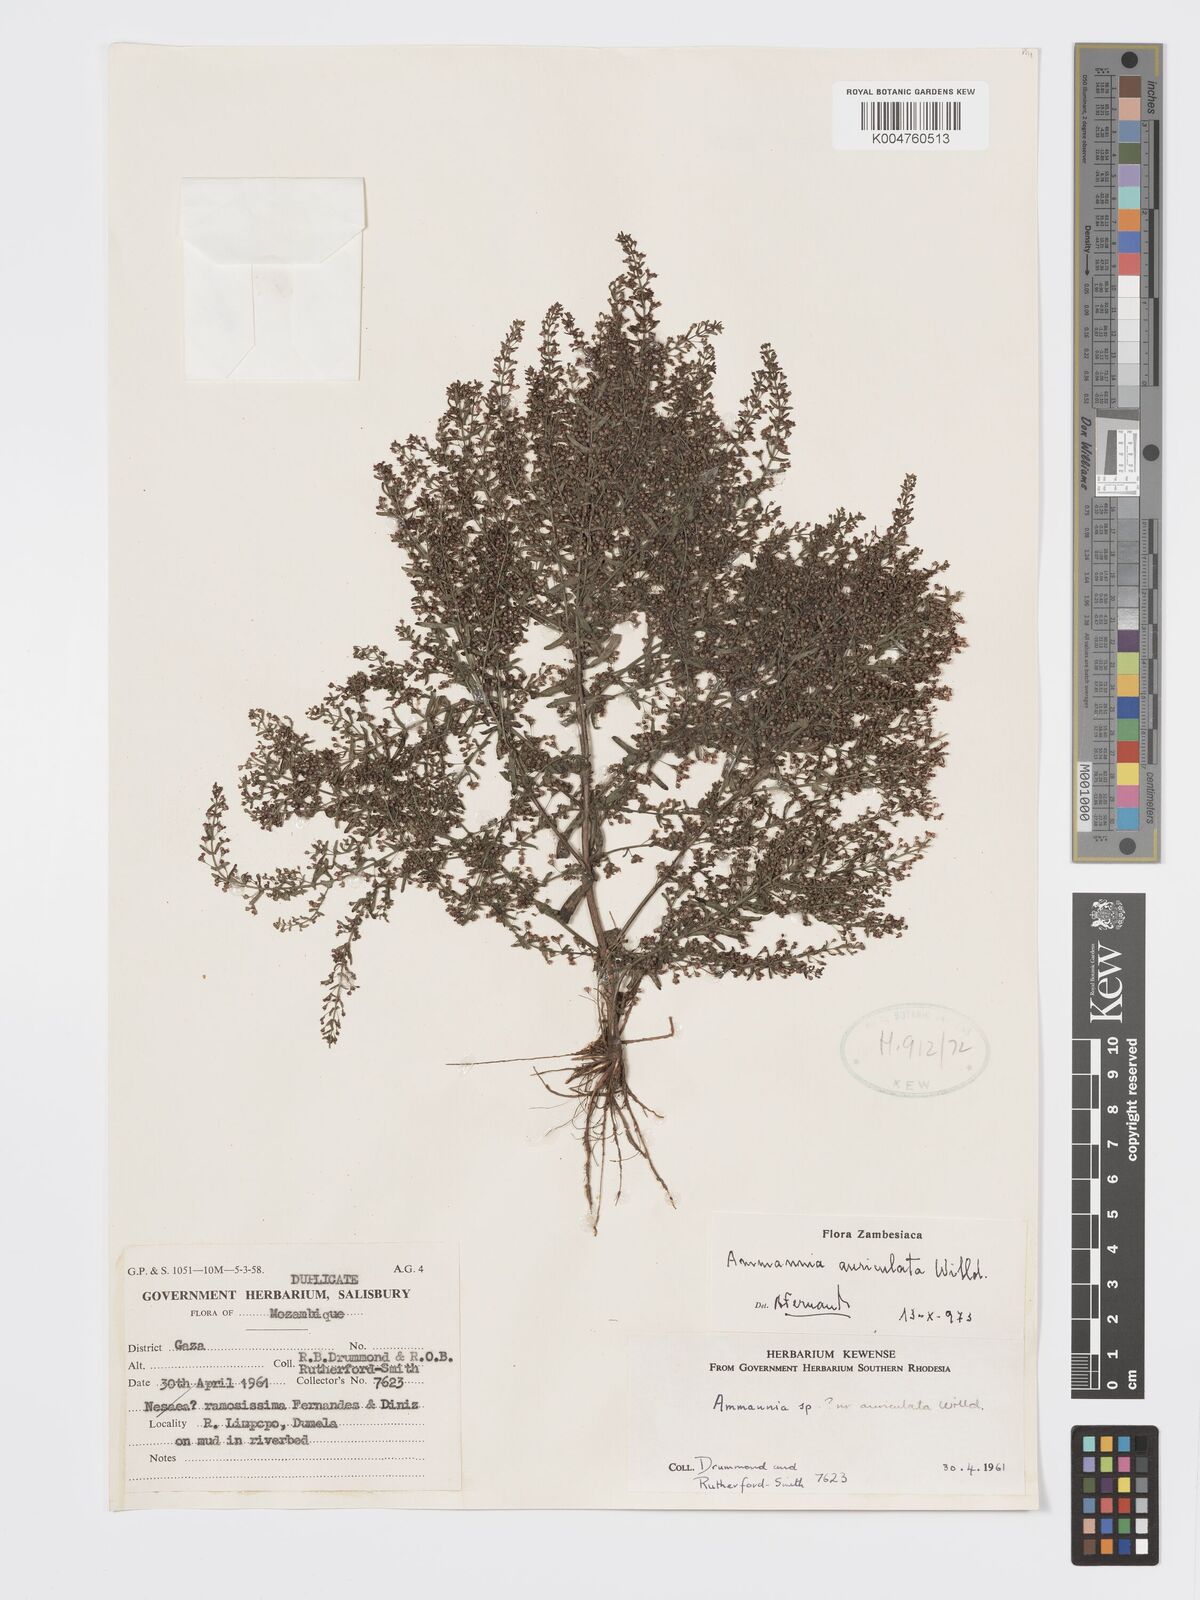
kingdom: Plantae
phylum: Tracheophyta
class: Magnoliopsida
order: Myrtales
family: Lythraceae
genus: Ammannia
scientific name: Ammannia auriculata
